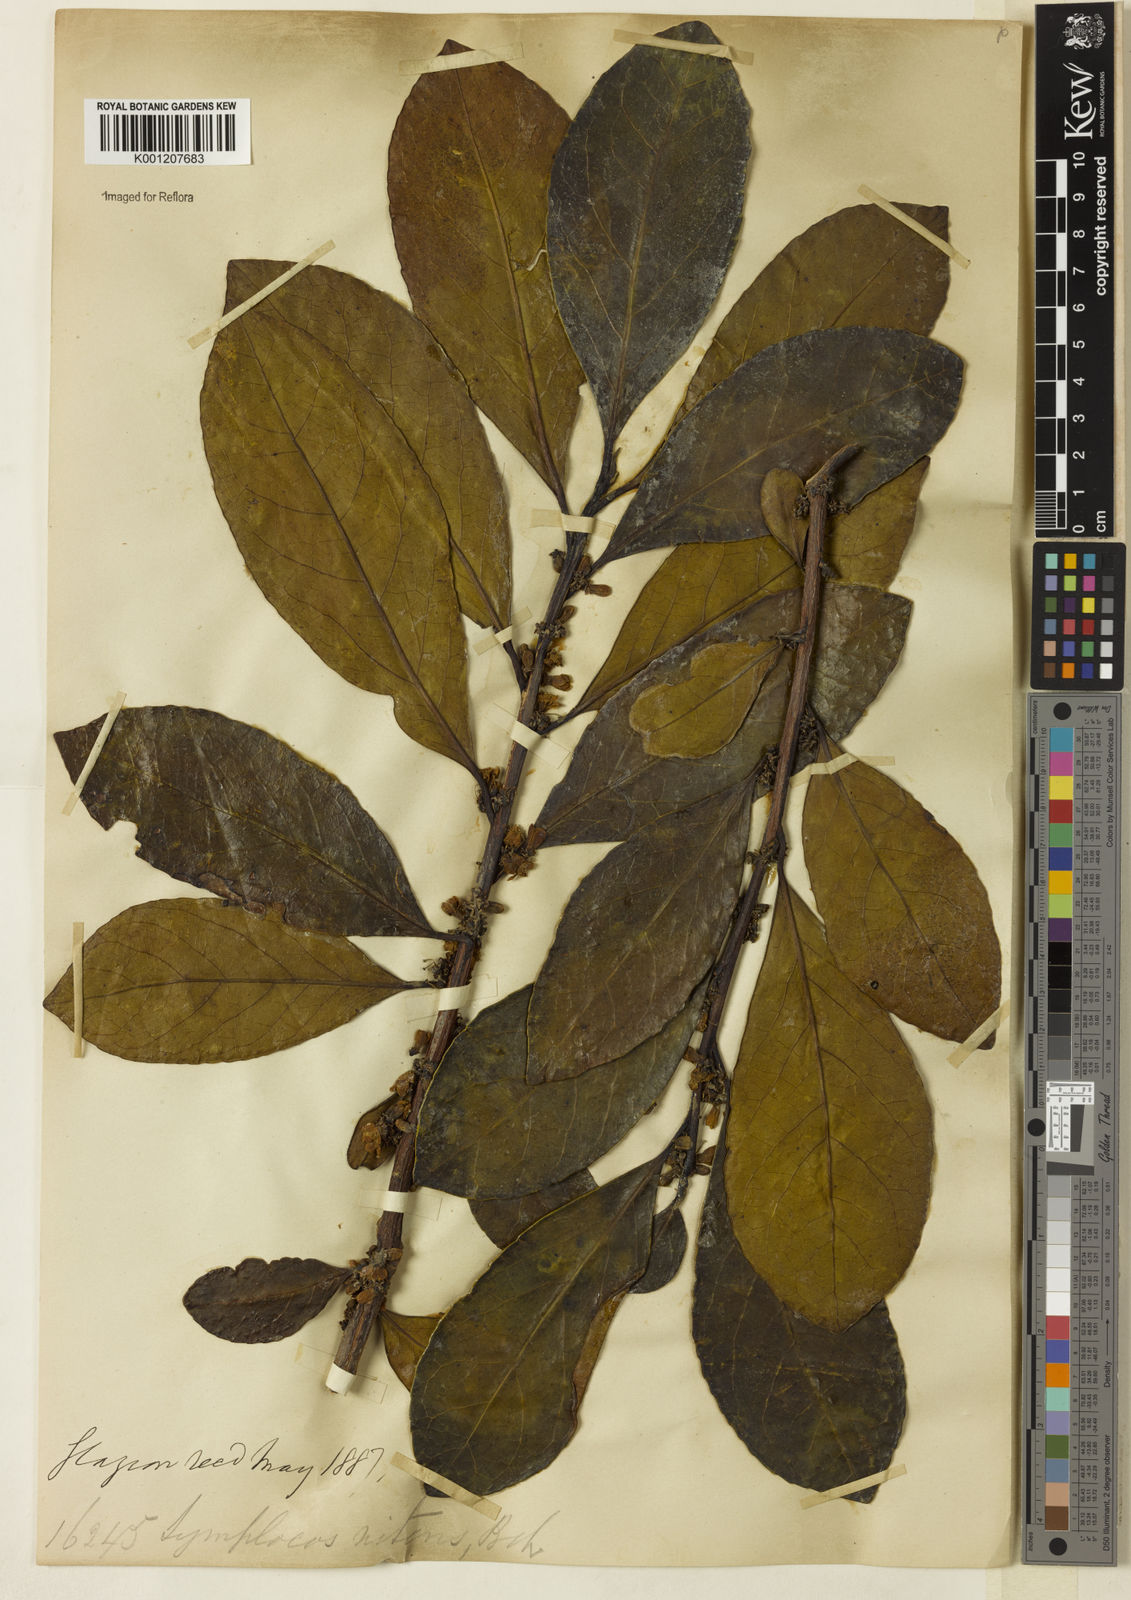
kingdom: Plantae
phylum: Tracheophyta
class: Magnoliopsida
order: Ericales
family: Symplocaceae
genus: Symplocos
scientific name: Symplocos nitens
